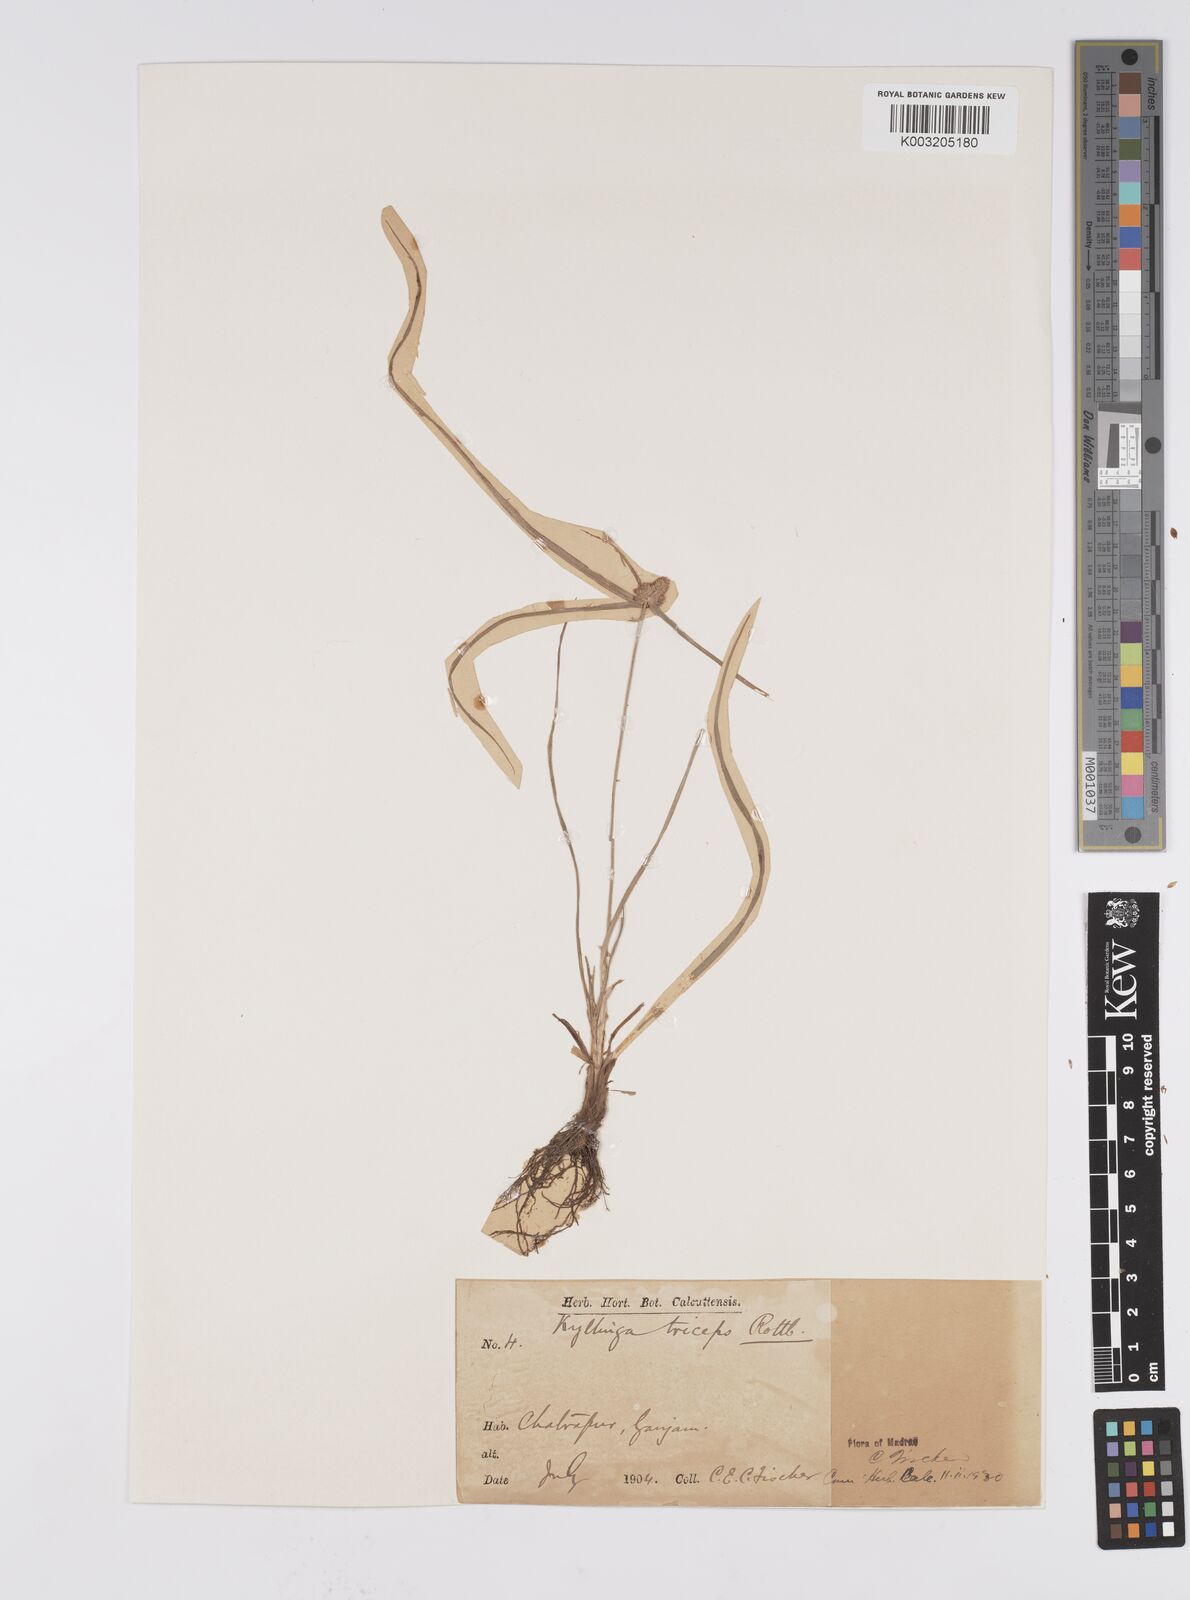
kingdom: Plantae
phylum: Tracheophyta
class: Liliopsida
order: Poales
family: Cyperaceae
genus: Cyperus
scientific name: Cyperus
